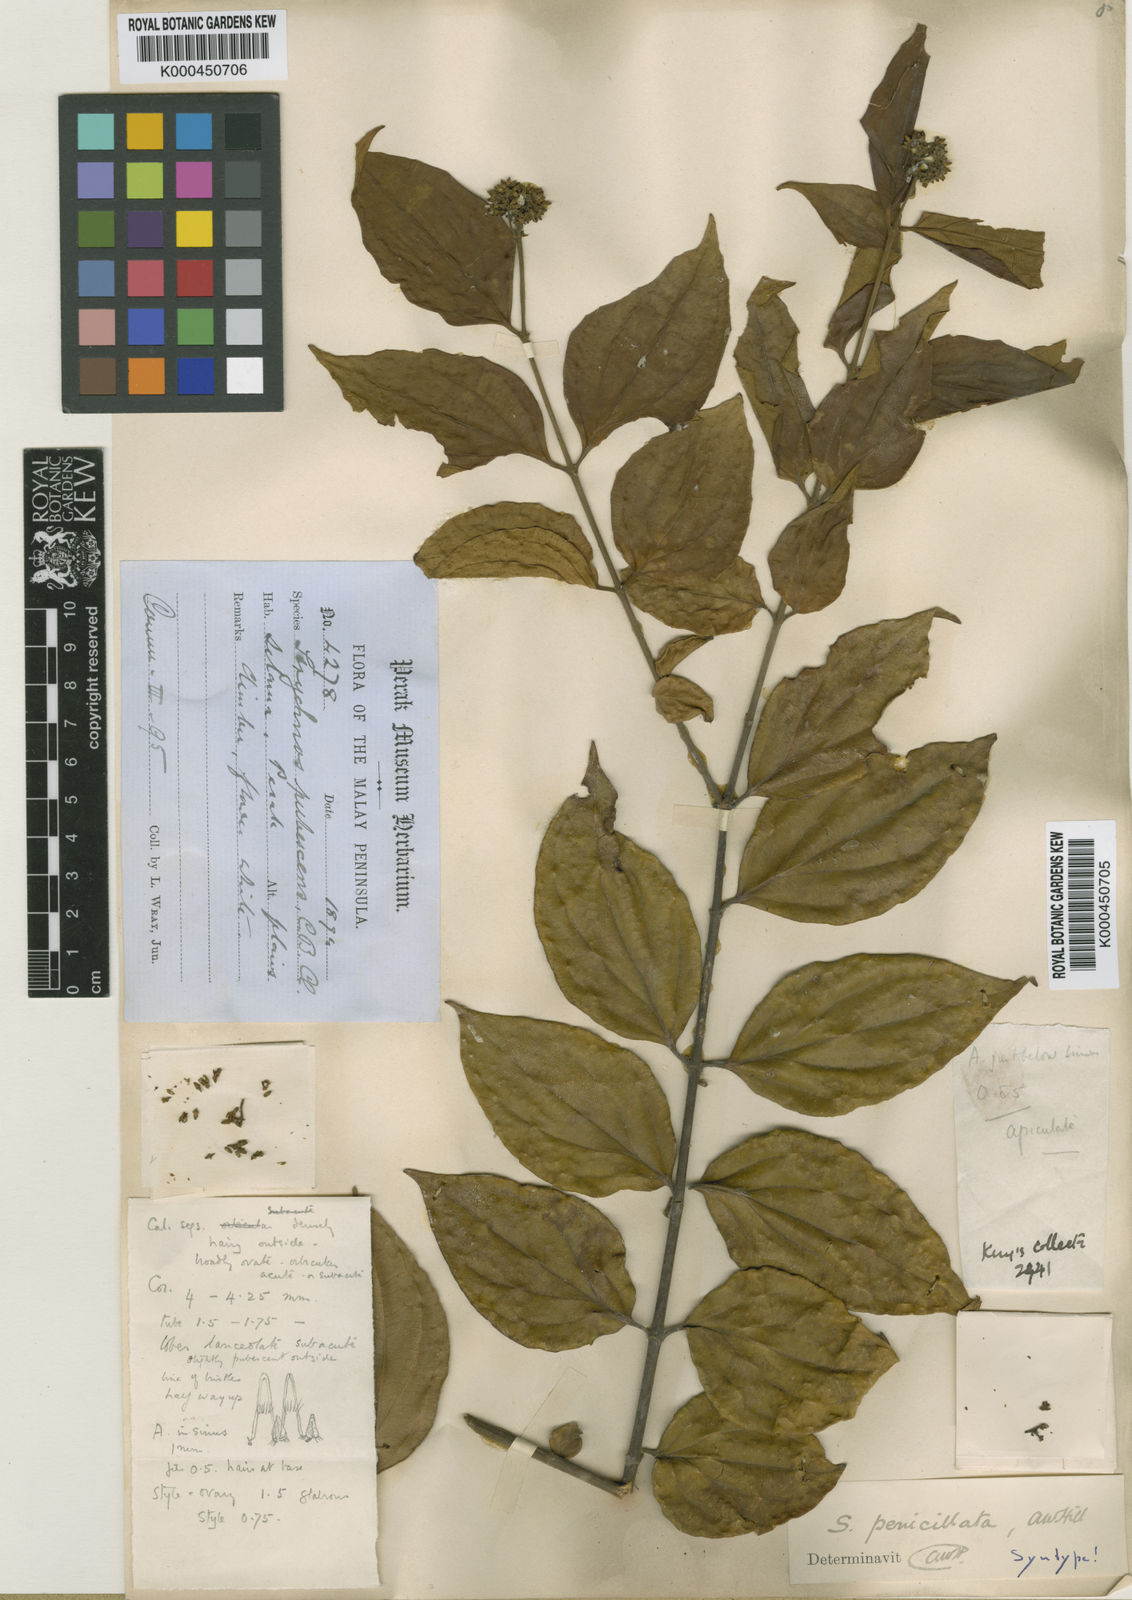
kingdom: Plantae
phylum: Tracheophyta
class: Magnoliopsida
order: Gentianales
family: Loganiaceae
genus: Strychnos
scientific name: Strychnos
